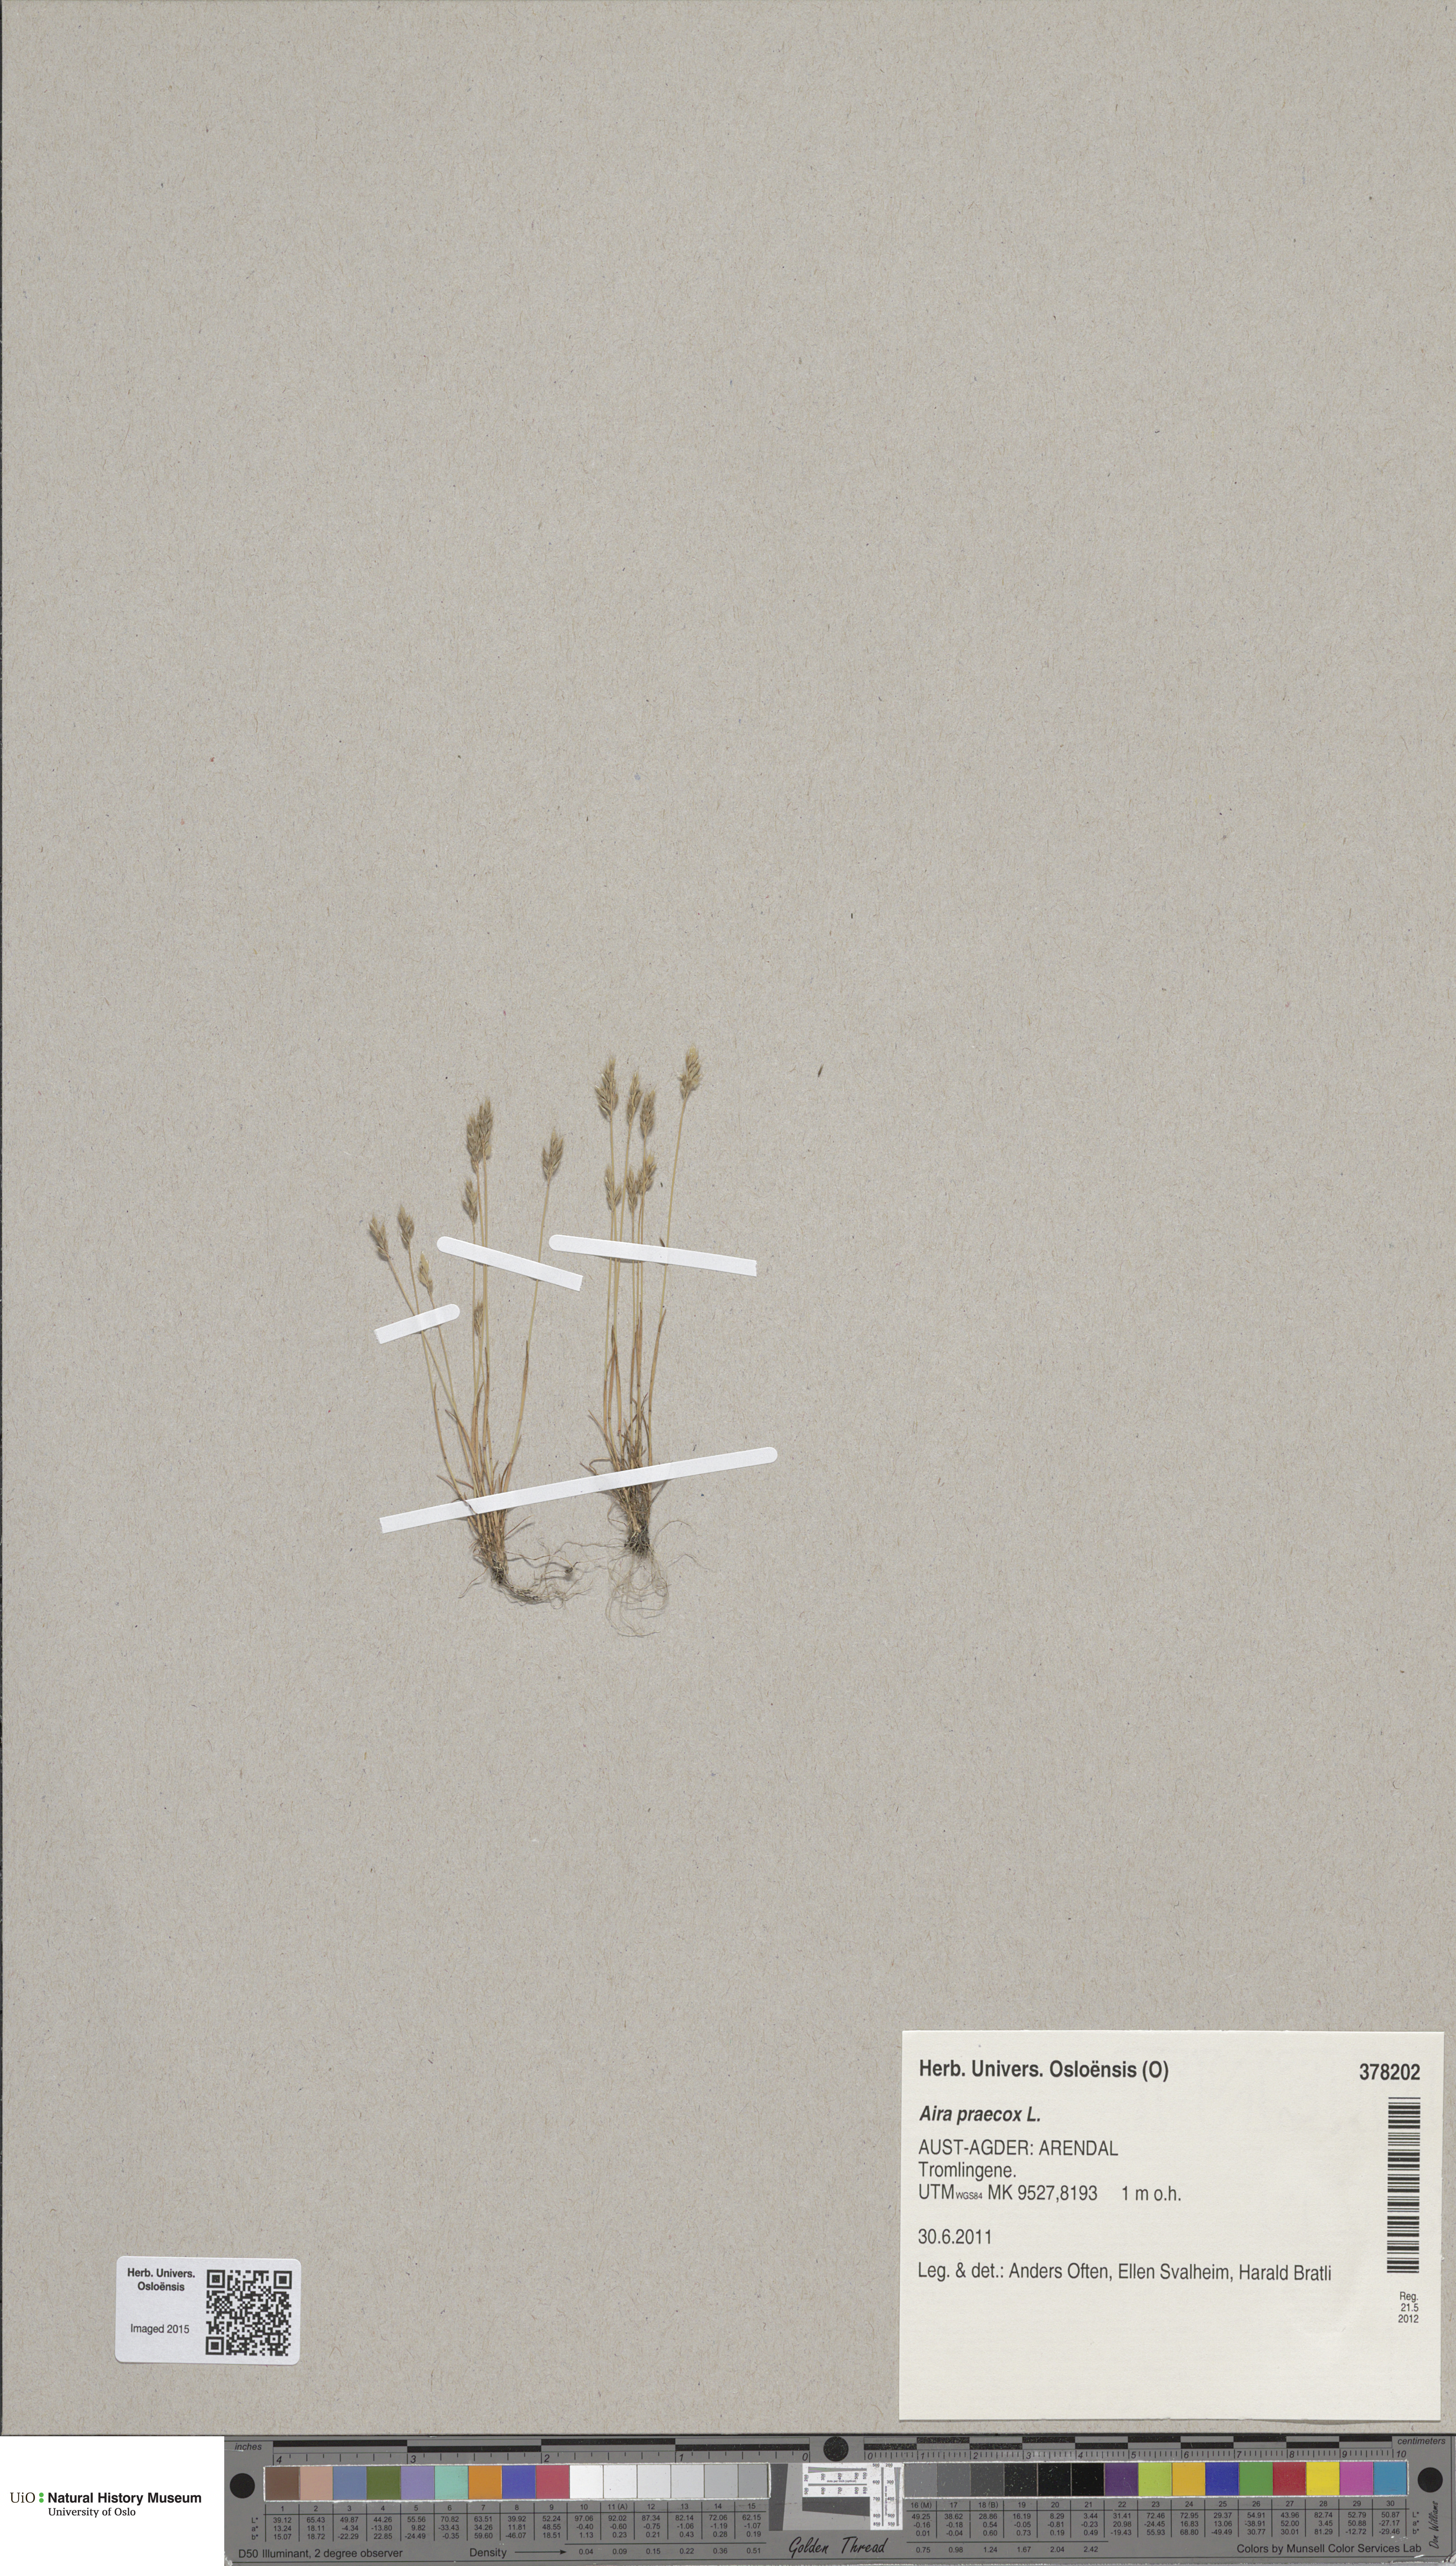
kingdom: Plantae
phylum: Tracheophyta
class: Liliopsida
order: Poales
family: Poaceae
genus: Aira
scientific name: Aira praecox
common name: Early hair-grass
